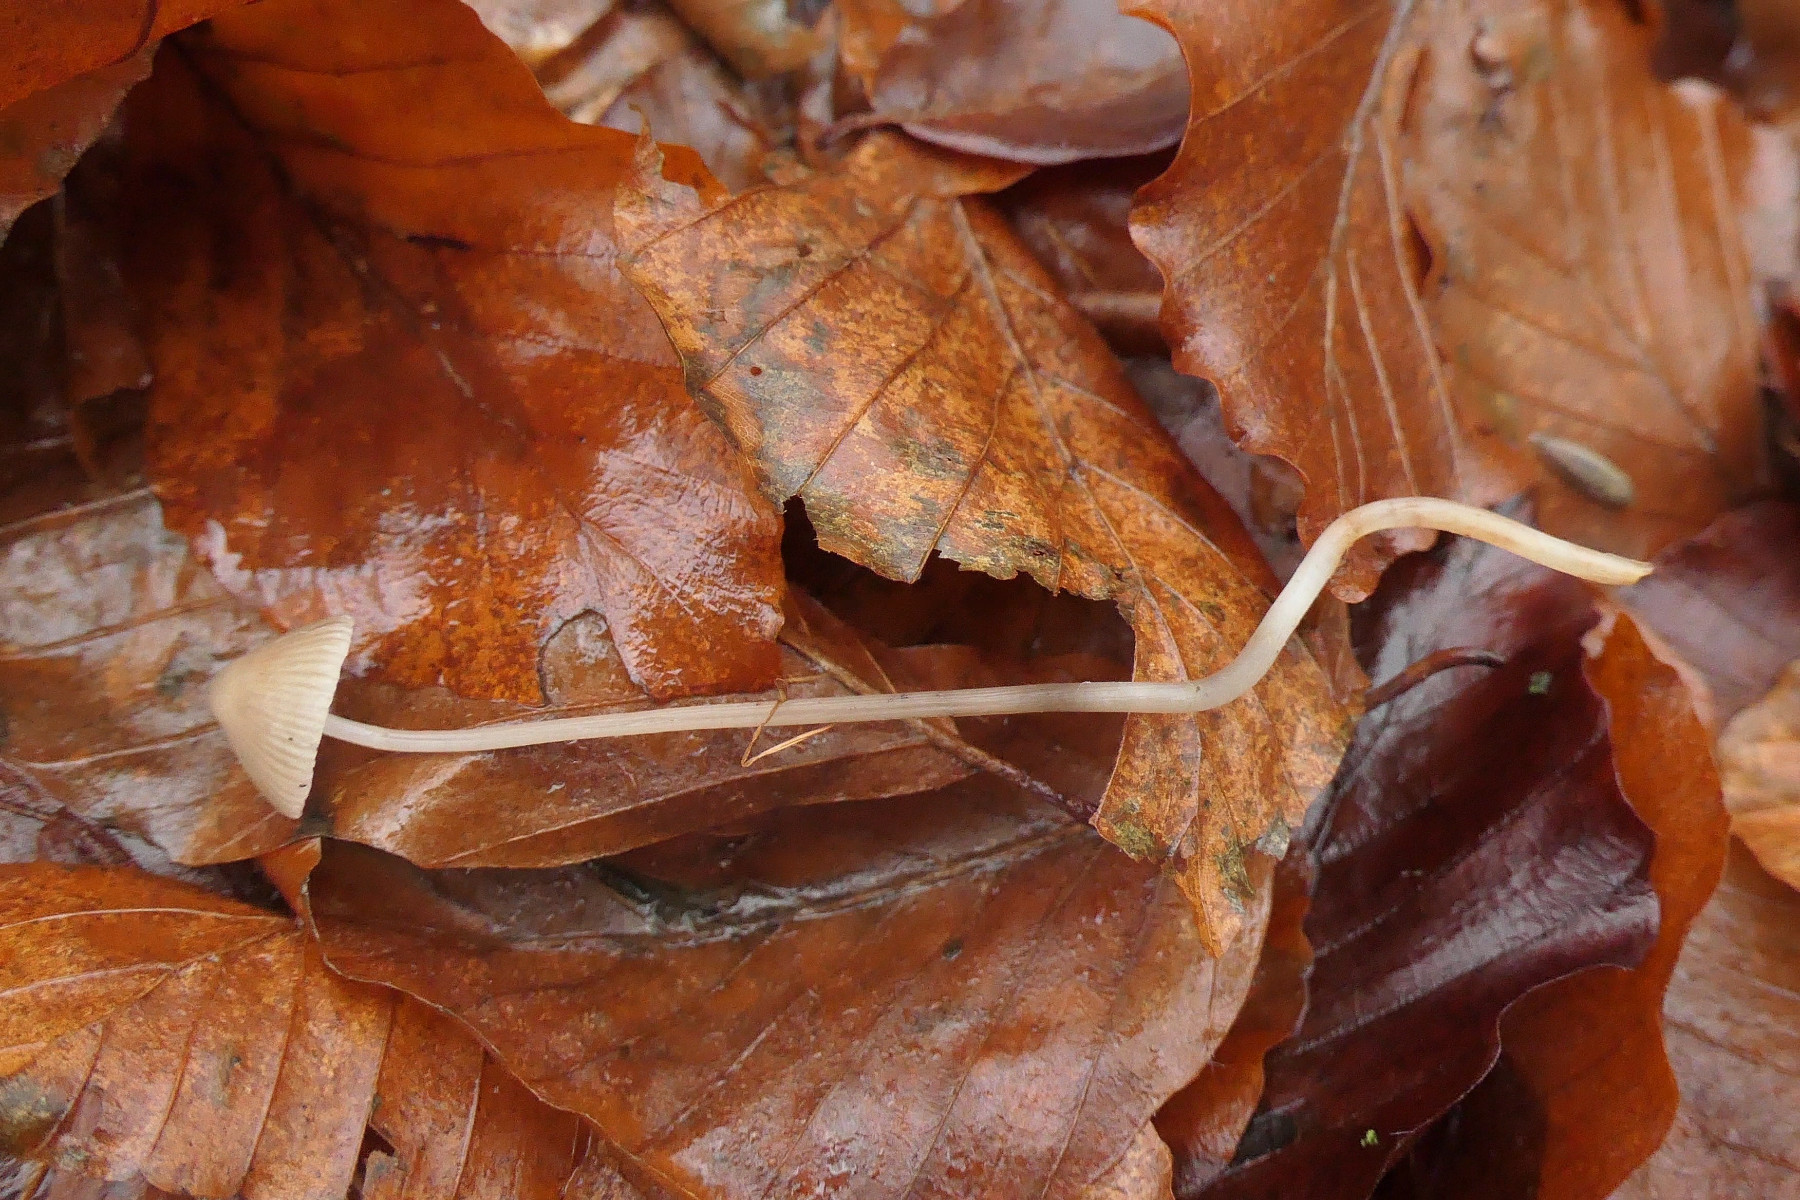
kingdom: Fungi
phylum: Basidiomycota
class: Agaricomycetes
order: Agaricales
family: Mycenaceae
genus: Mycena
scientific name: Mycena polygramma
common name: mangestribet huesvamp
